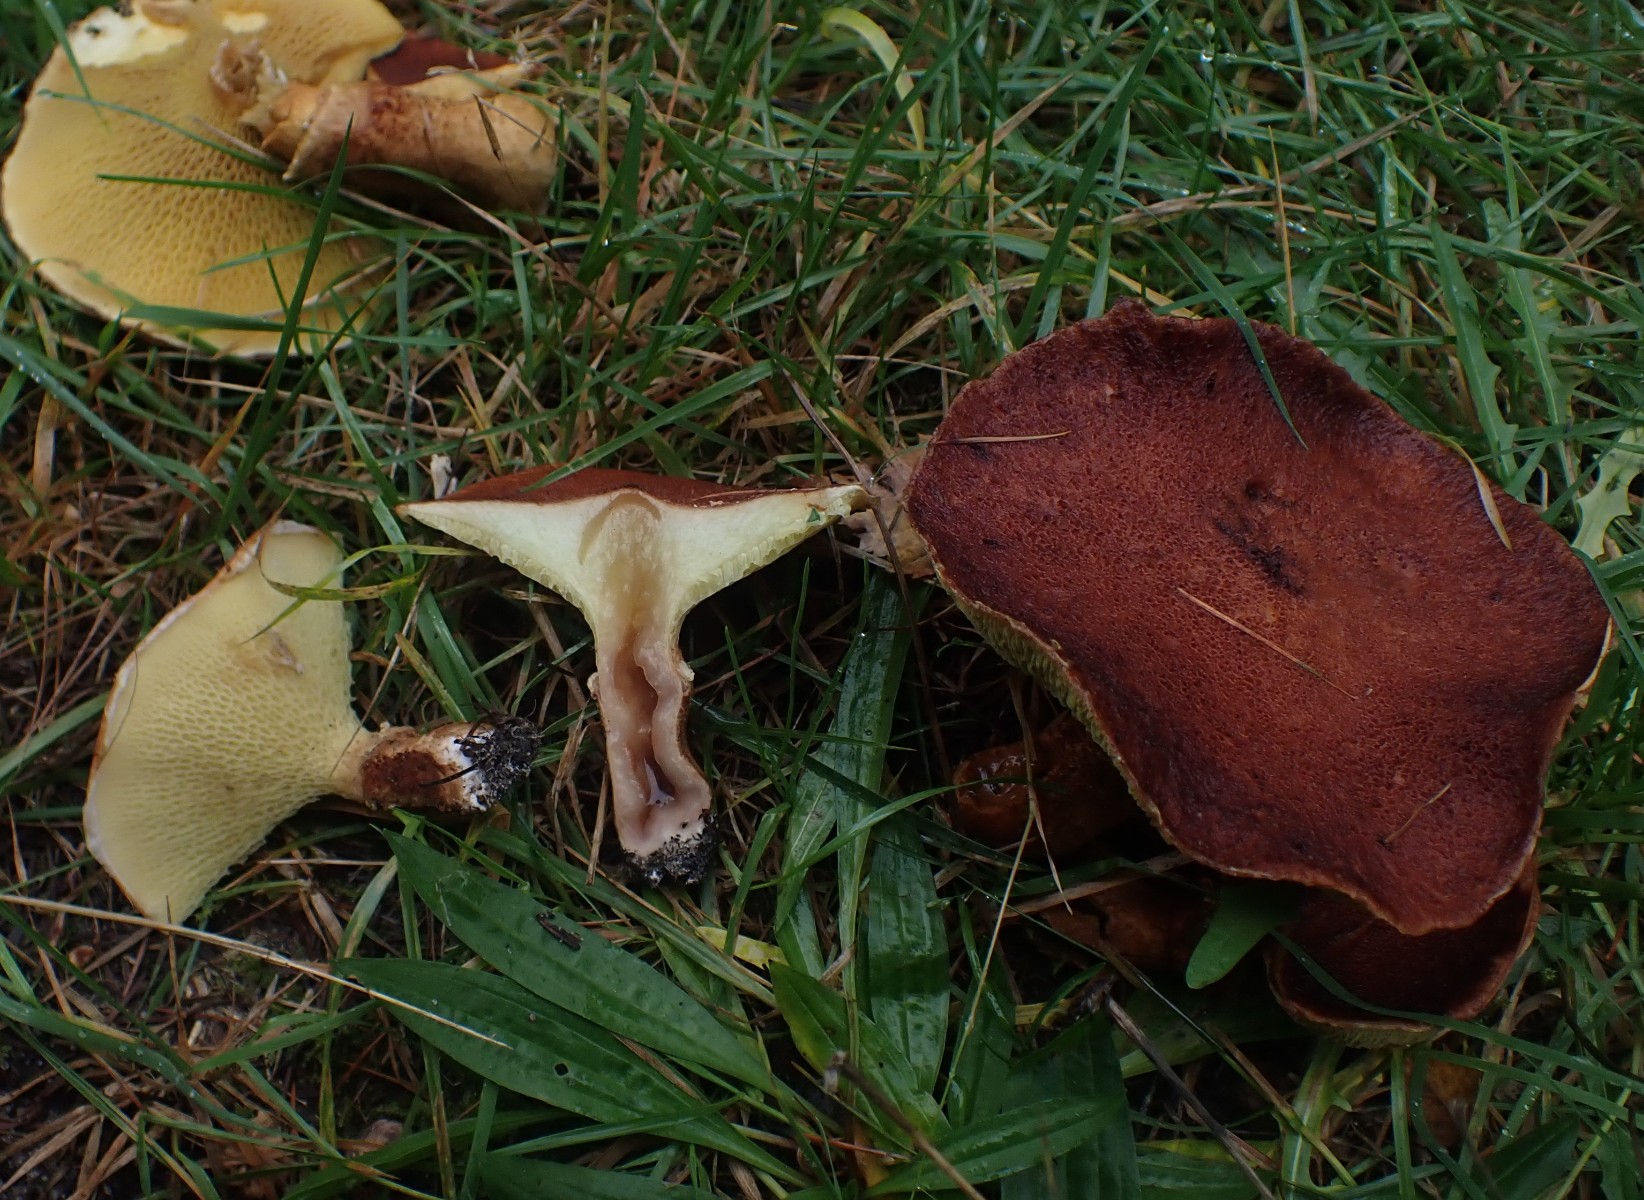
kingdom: Fungi
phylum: Basidiomycota
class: Agaricomycetes
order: Boletales
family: Suillaceae
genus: Suillus
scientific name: Suillus cavipes
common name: hulstokket slimrørhat
